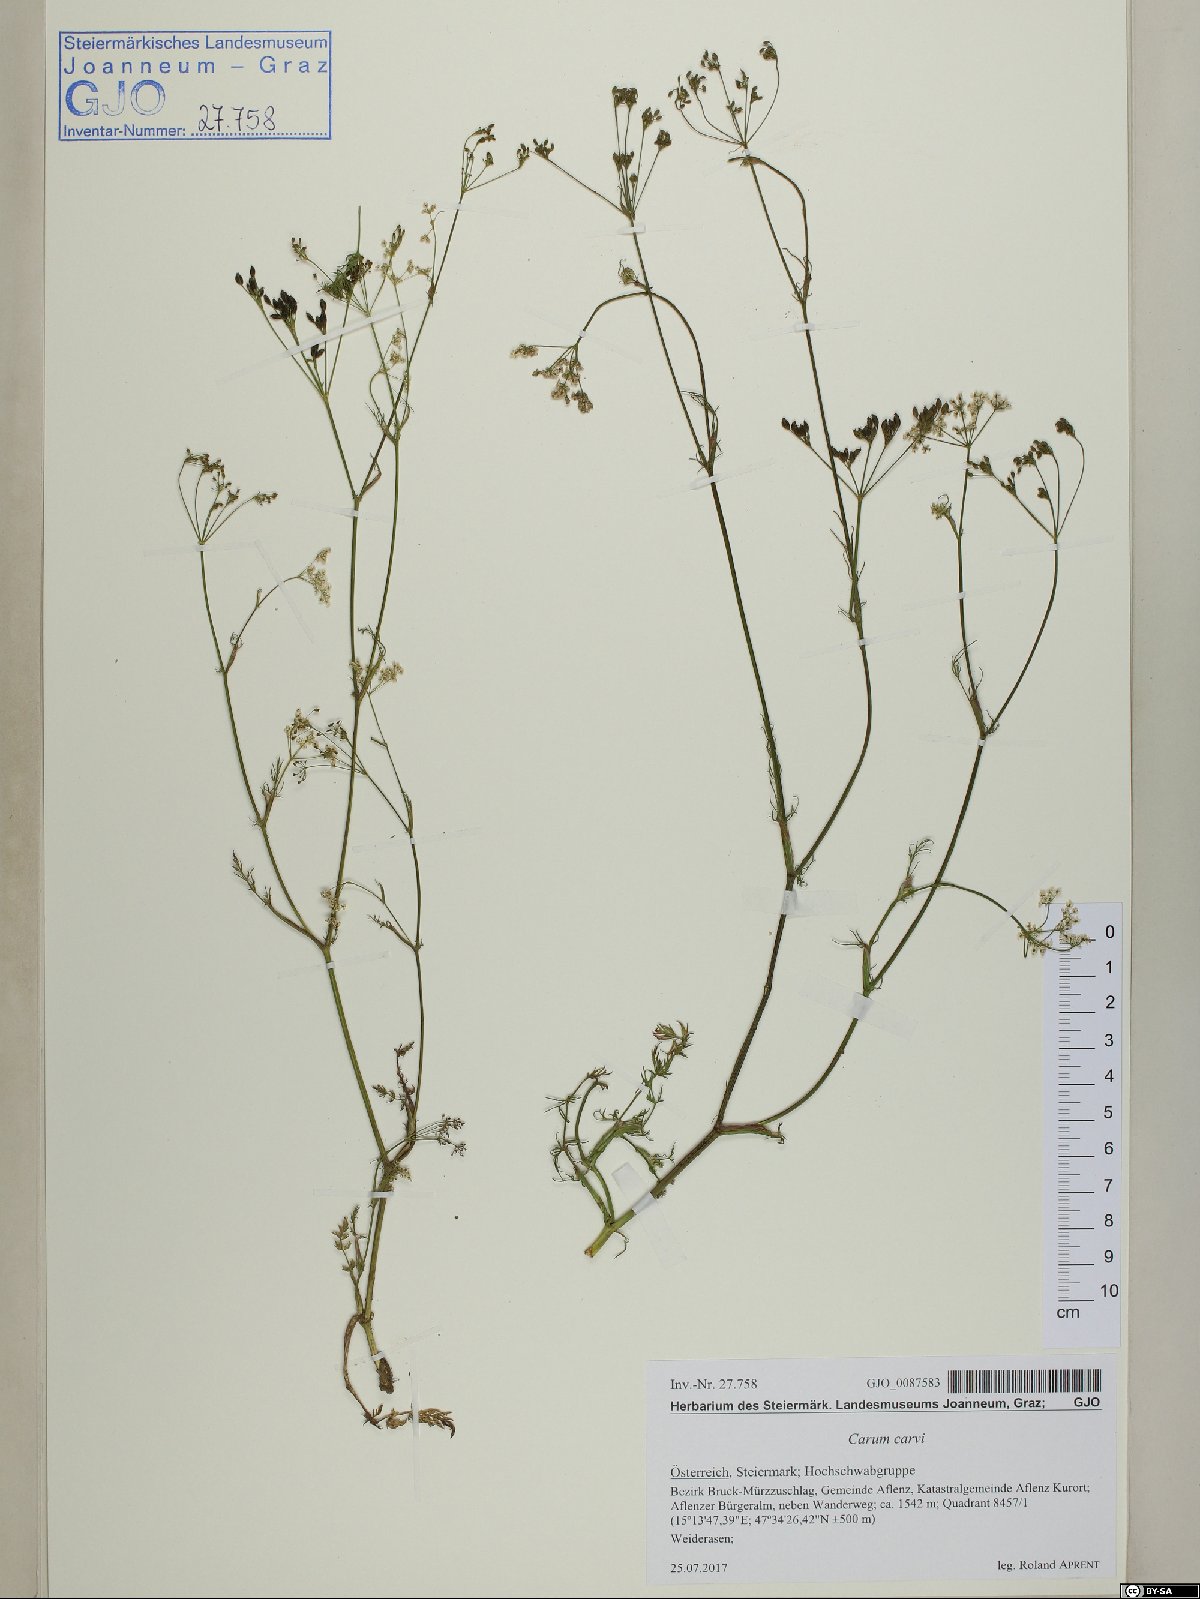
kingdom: Plantae
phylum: Tracheophyta
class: Magnoliopsida
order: Apiales
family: Apiaceae
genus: Carum
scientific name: Carum carvi
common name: Caraway
